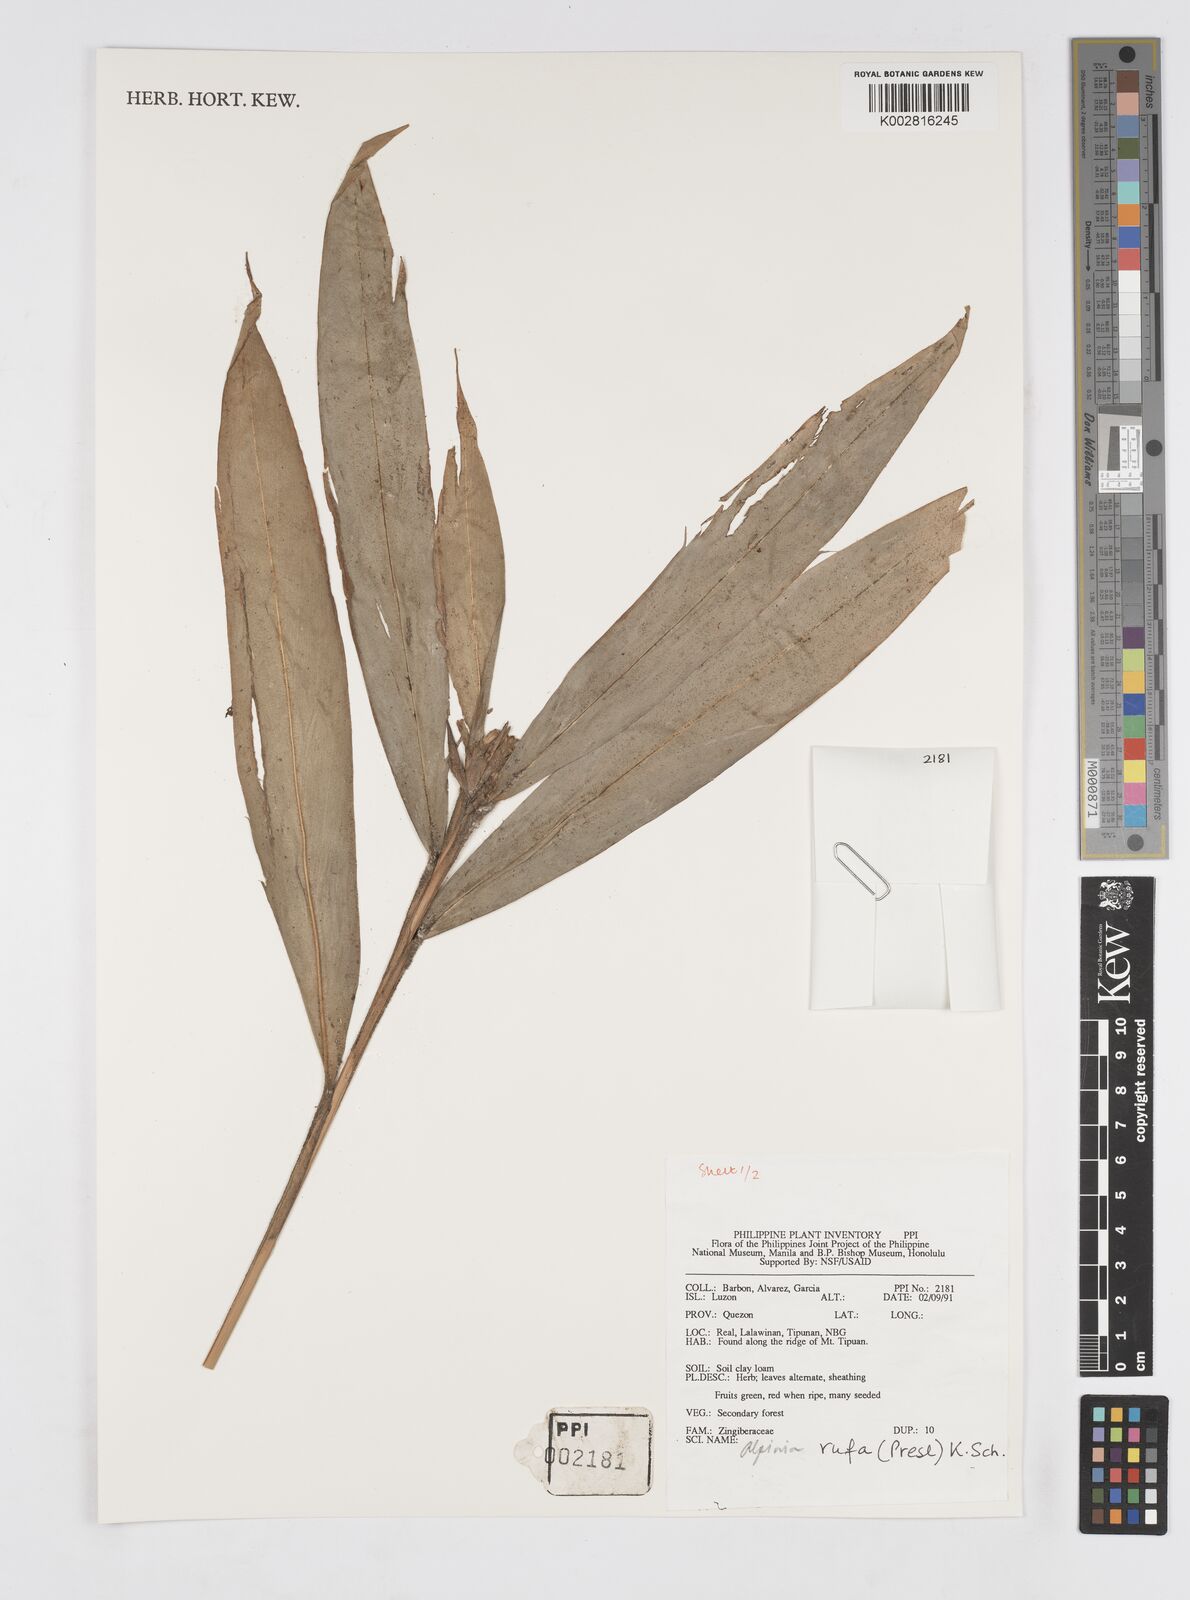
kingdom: Plantae
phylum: Tracheophyta
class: Liliopsida
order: Zingiberales
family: Zingiberaceae
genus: Alpinia
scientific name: Alpinia rufa
